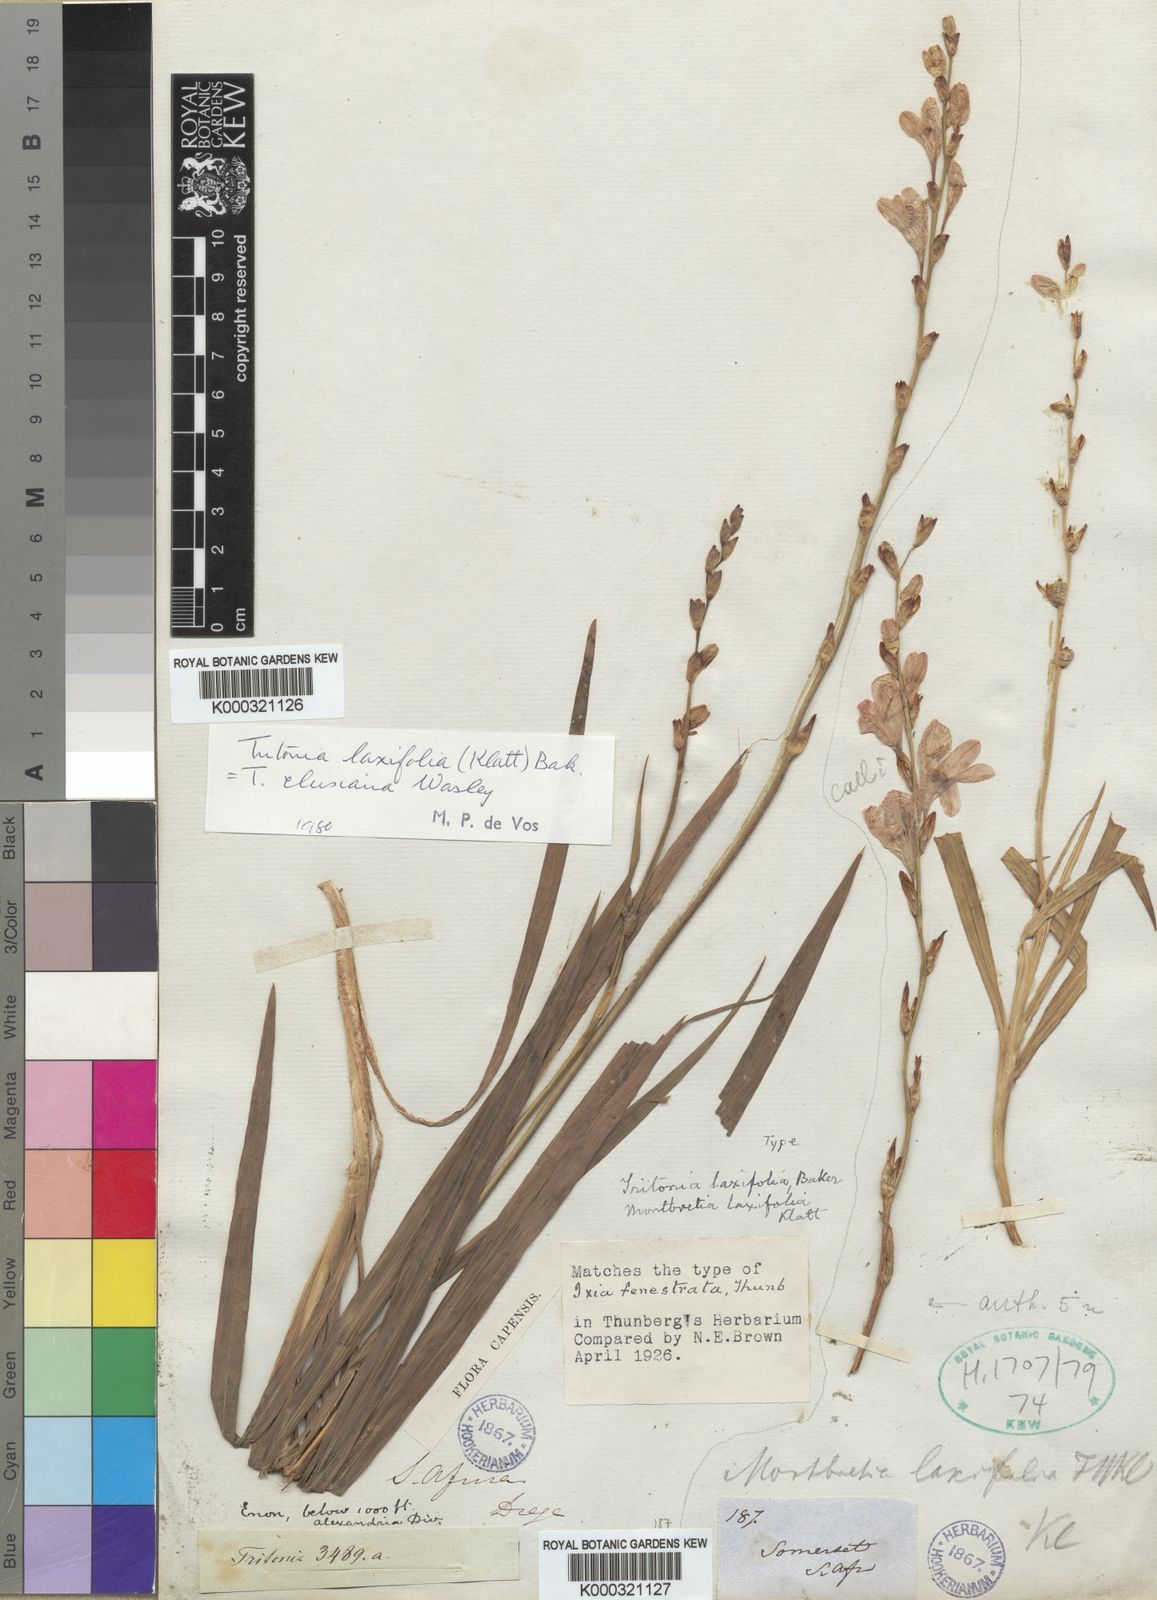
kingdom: Plantae
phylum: Tracheophyta
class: Liliopsida
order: Asparagales
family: Iridaceae
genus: Tritonia
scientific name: Tritonia laxifolia
